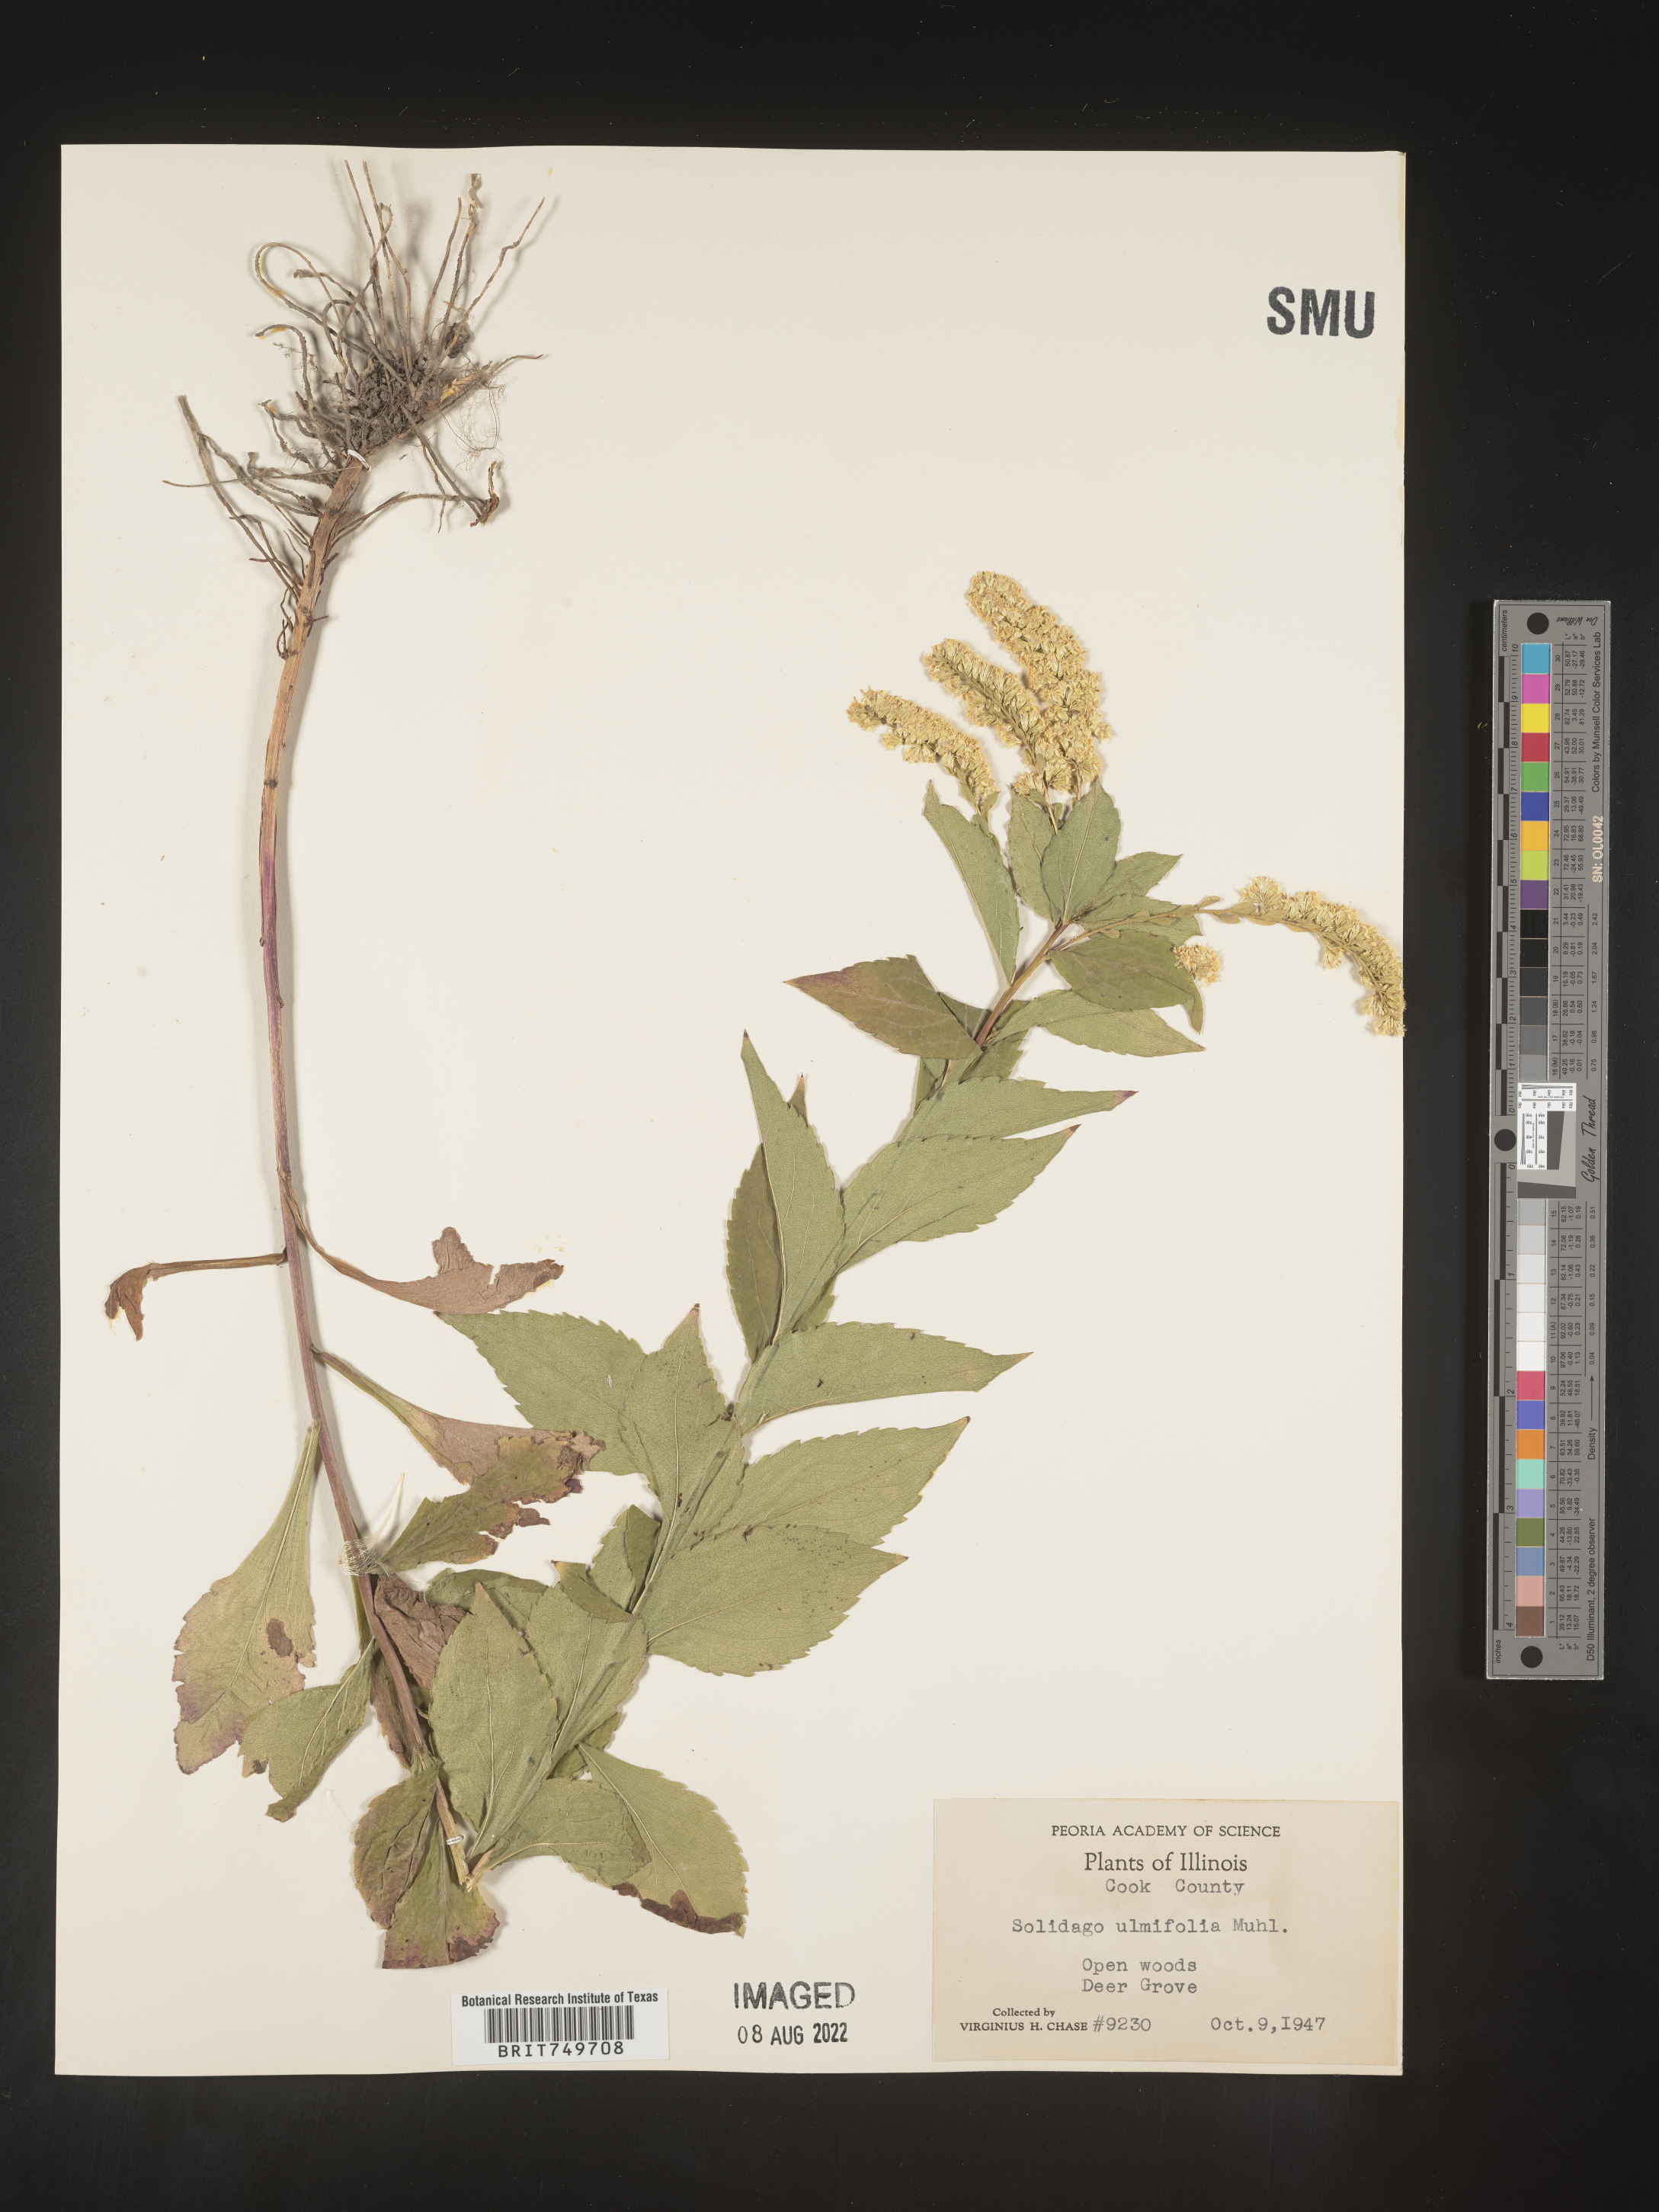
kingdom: Plantae
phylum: Tracheophyta
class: Magnoliopsida
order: Asterales
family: Asteraceae
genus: Solidago
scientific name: Solidago ulmifolia
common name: Elm-leaf goldenrod
